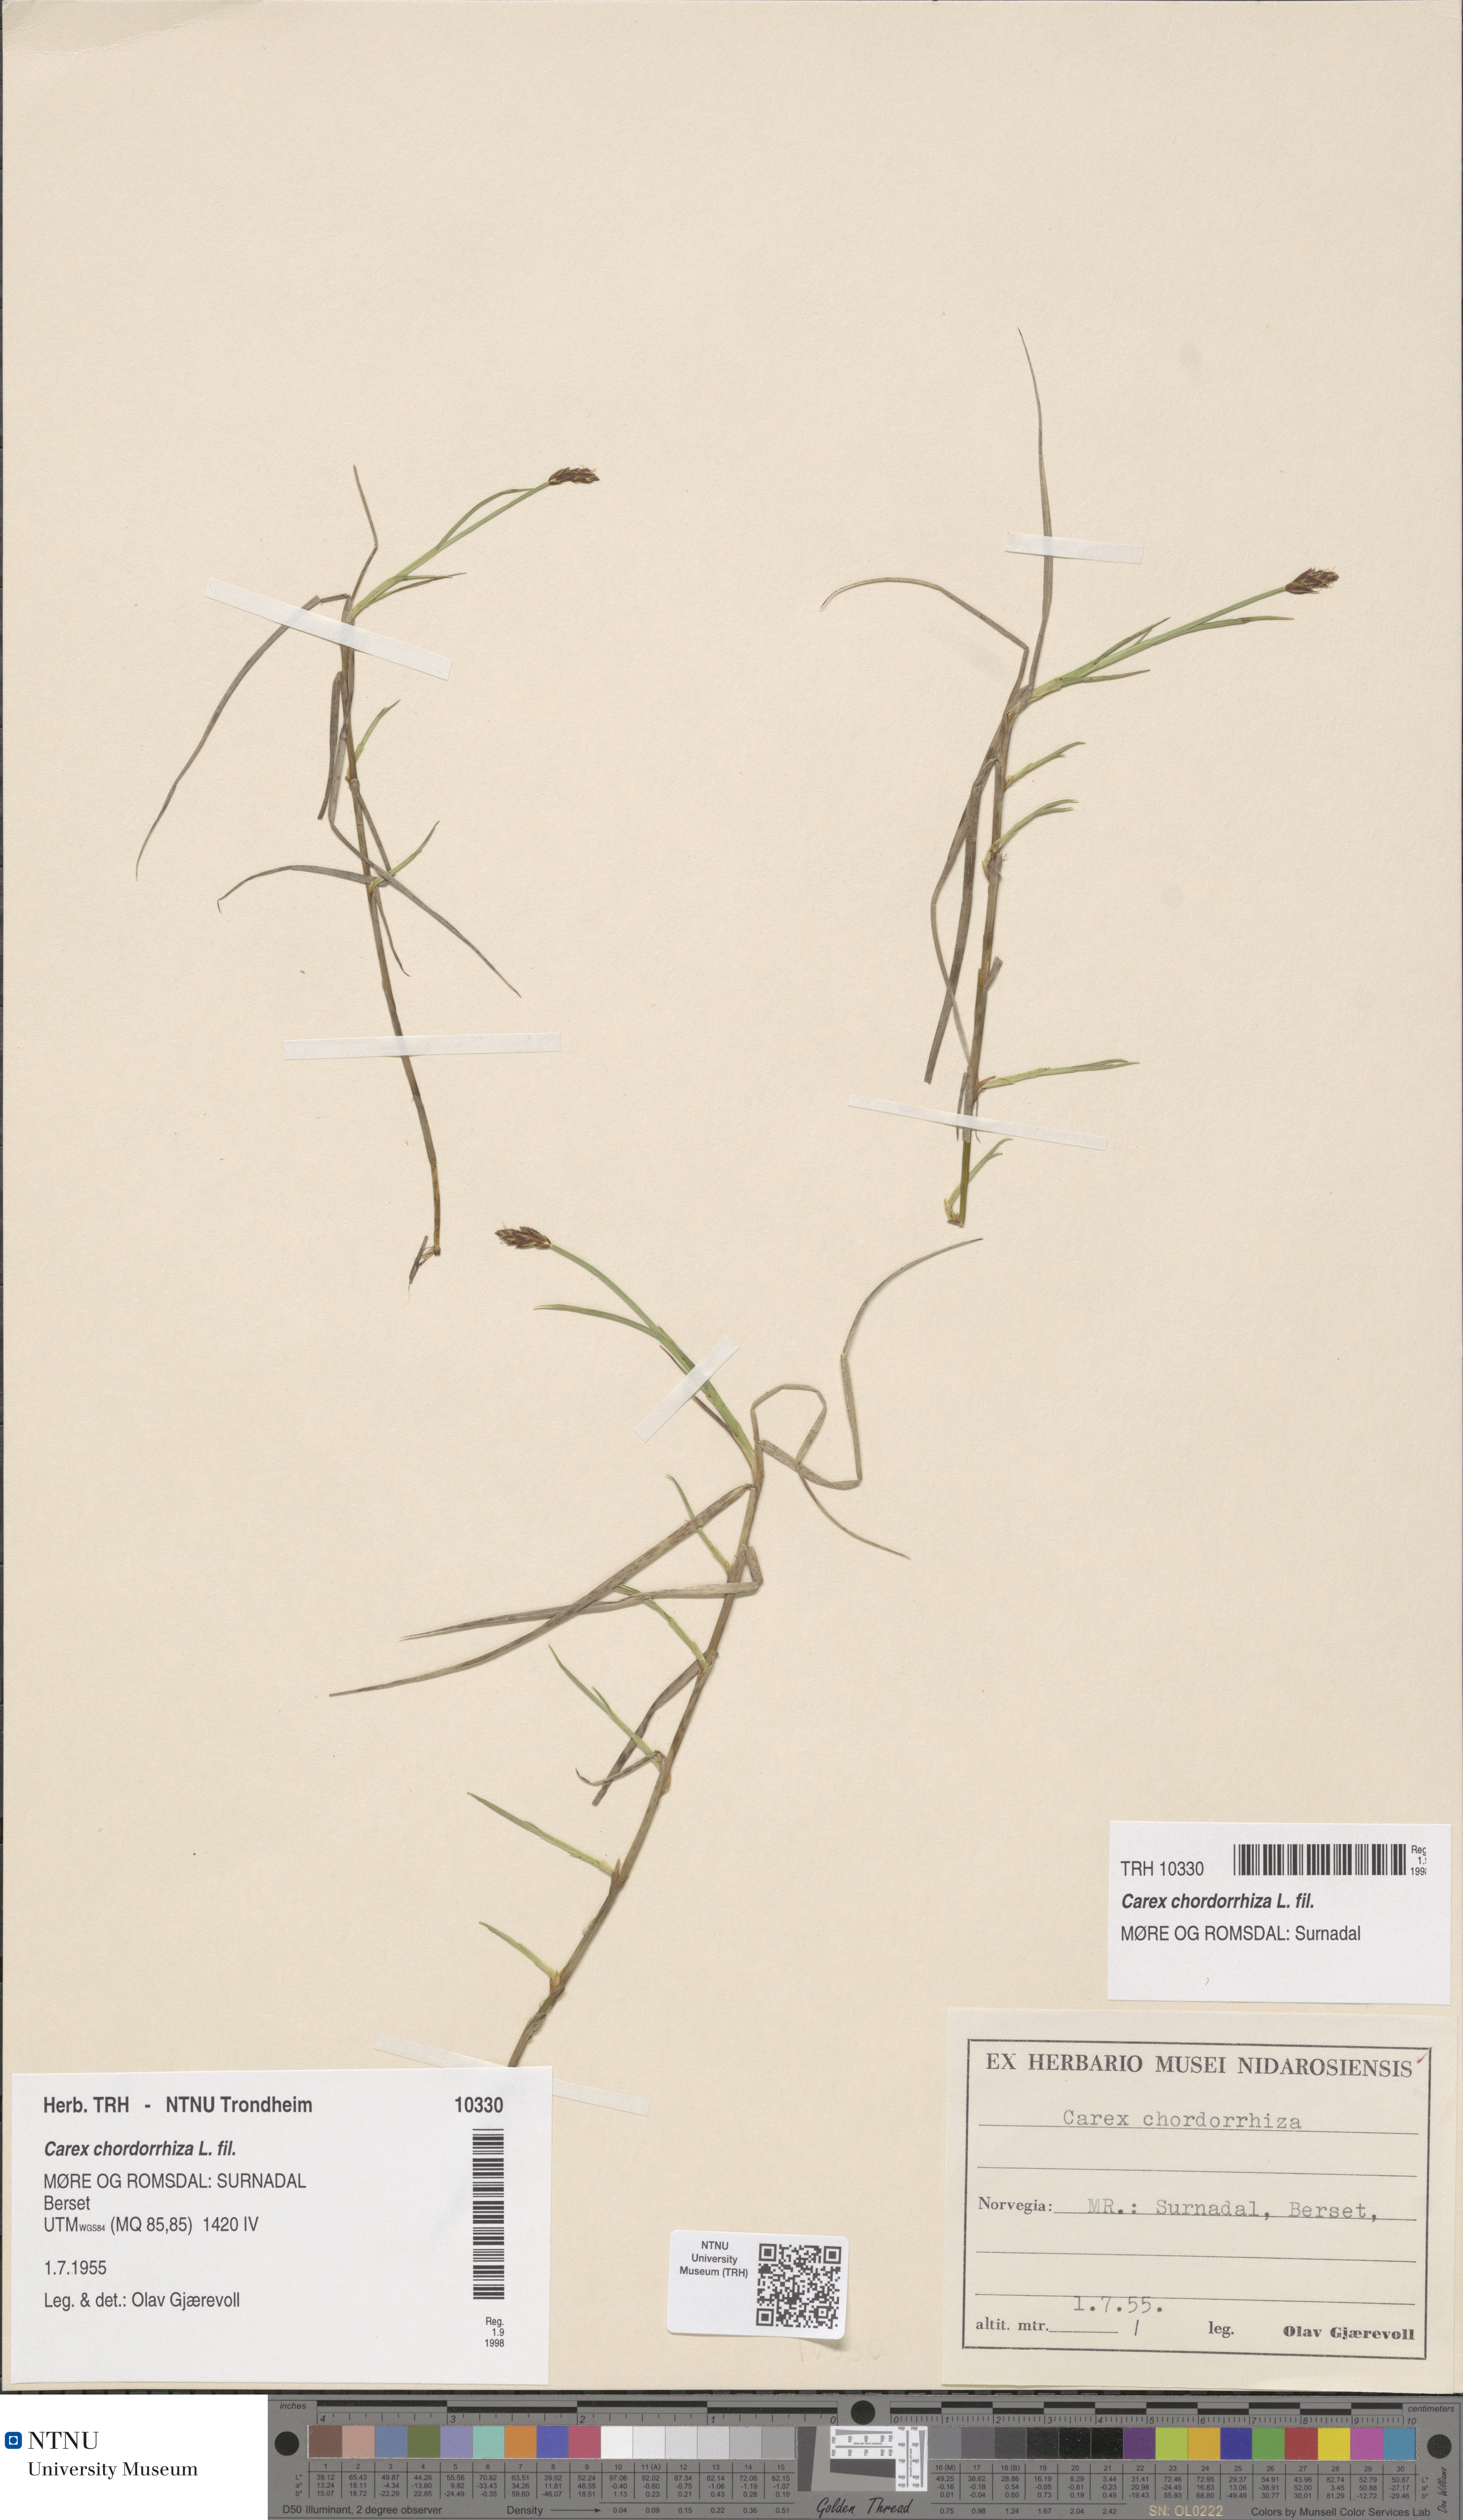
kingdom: Plantae
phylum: Tracheophyta
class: Liliopsida
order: Poales
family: Cyperaceae
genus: Carex
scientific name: Carex chordorrhiza
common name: String sedge
